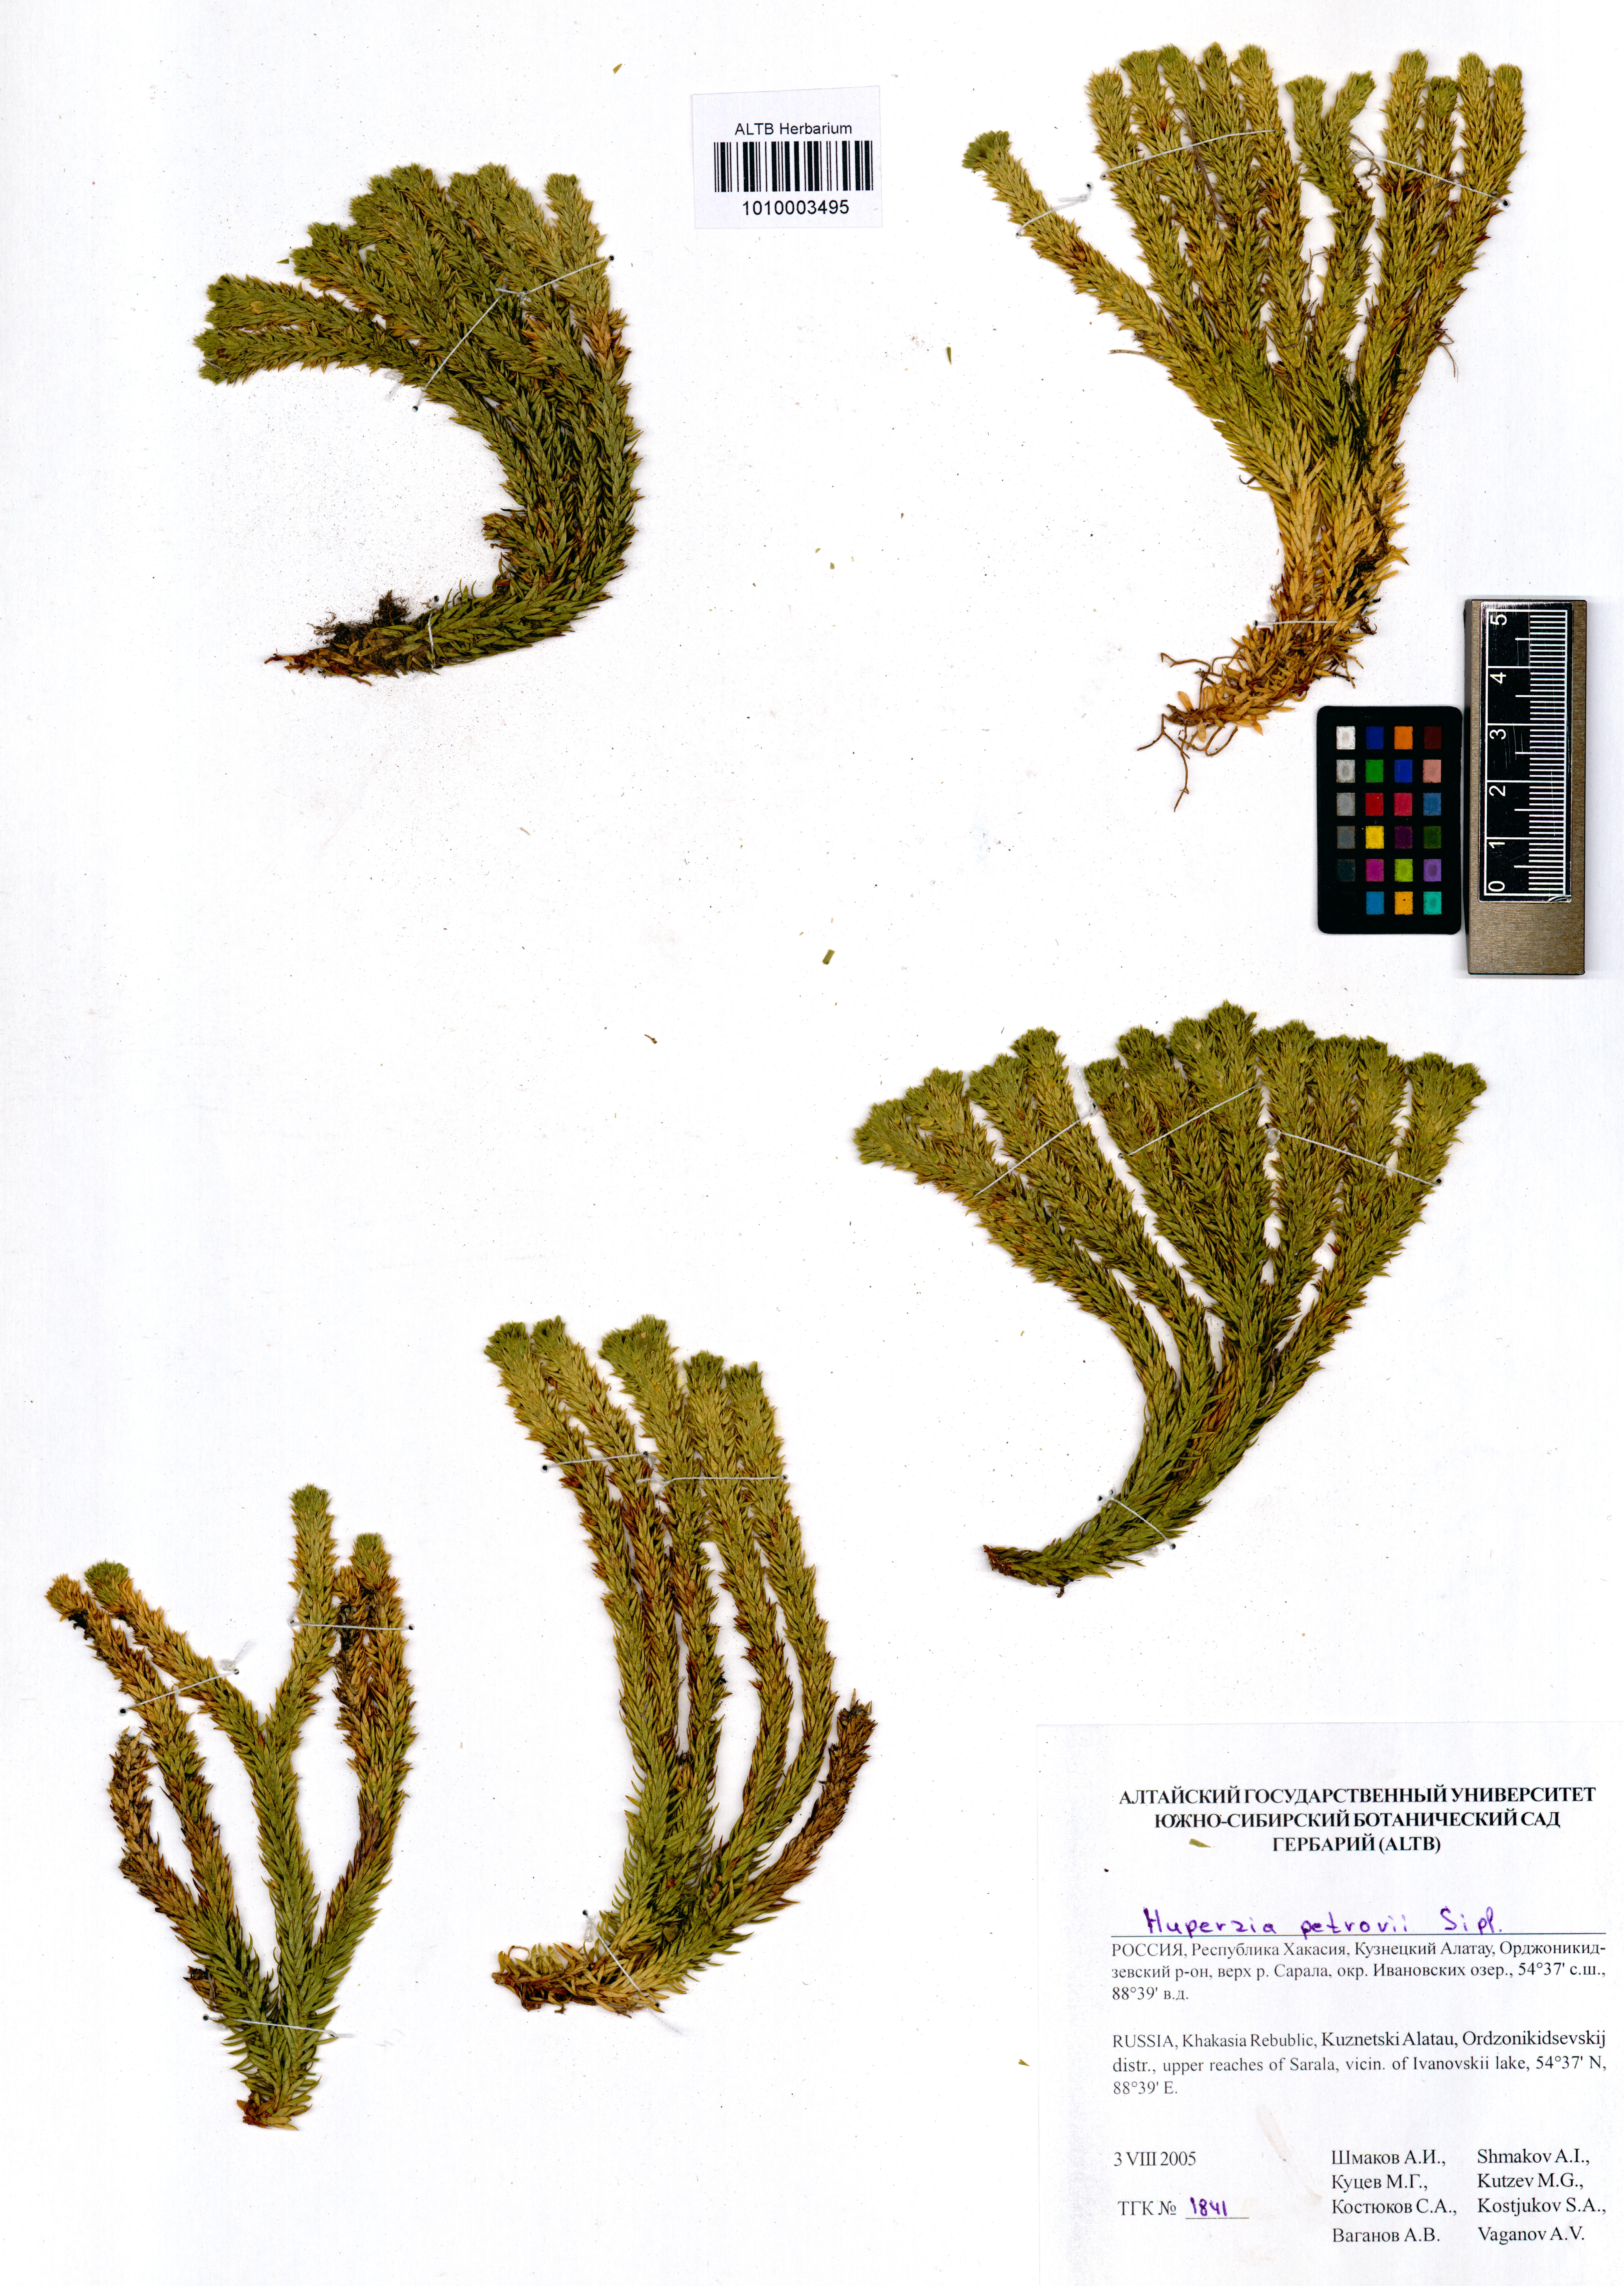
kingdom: Plantae
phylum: Tracheophyta
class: Lycopodiopsida
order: Lycopodiales
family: Lycopodiaceae
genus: Huperzia
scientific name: Huperzia selago
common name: Northern firmoss
